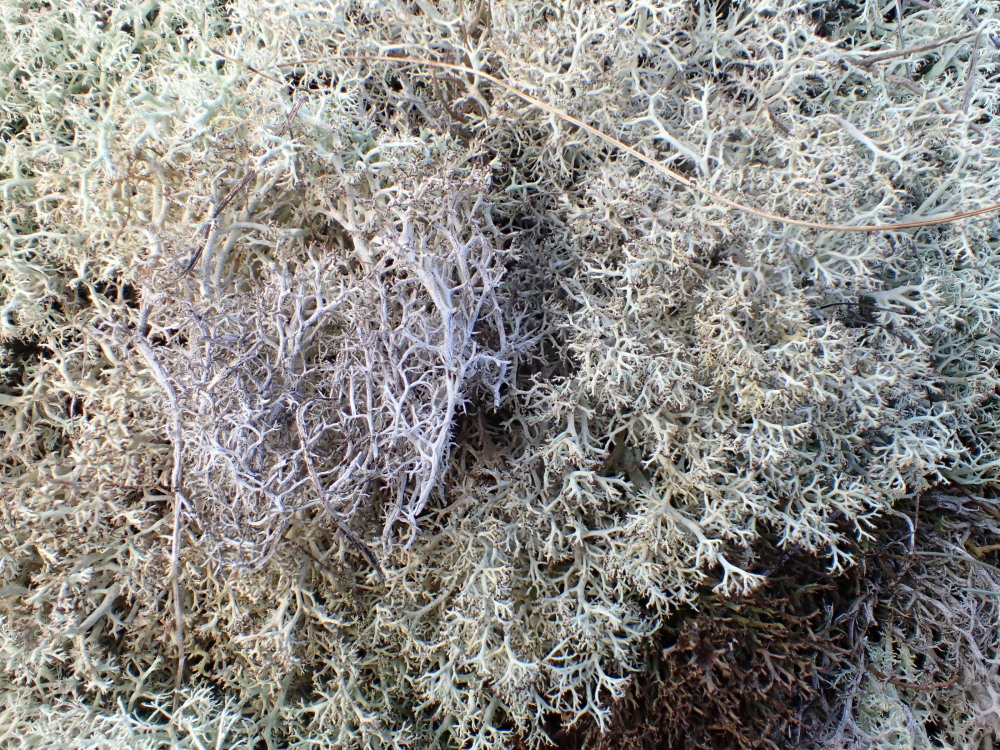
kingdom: Fungi
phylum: Ascomycota
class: Lecanoromycetes
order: Lecanorales
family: Cladoniaceae
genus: Cladonia
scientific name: Cladonia rangiferina
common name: askegrå rensdyrlav
